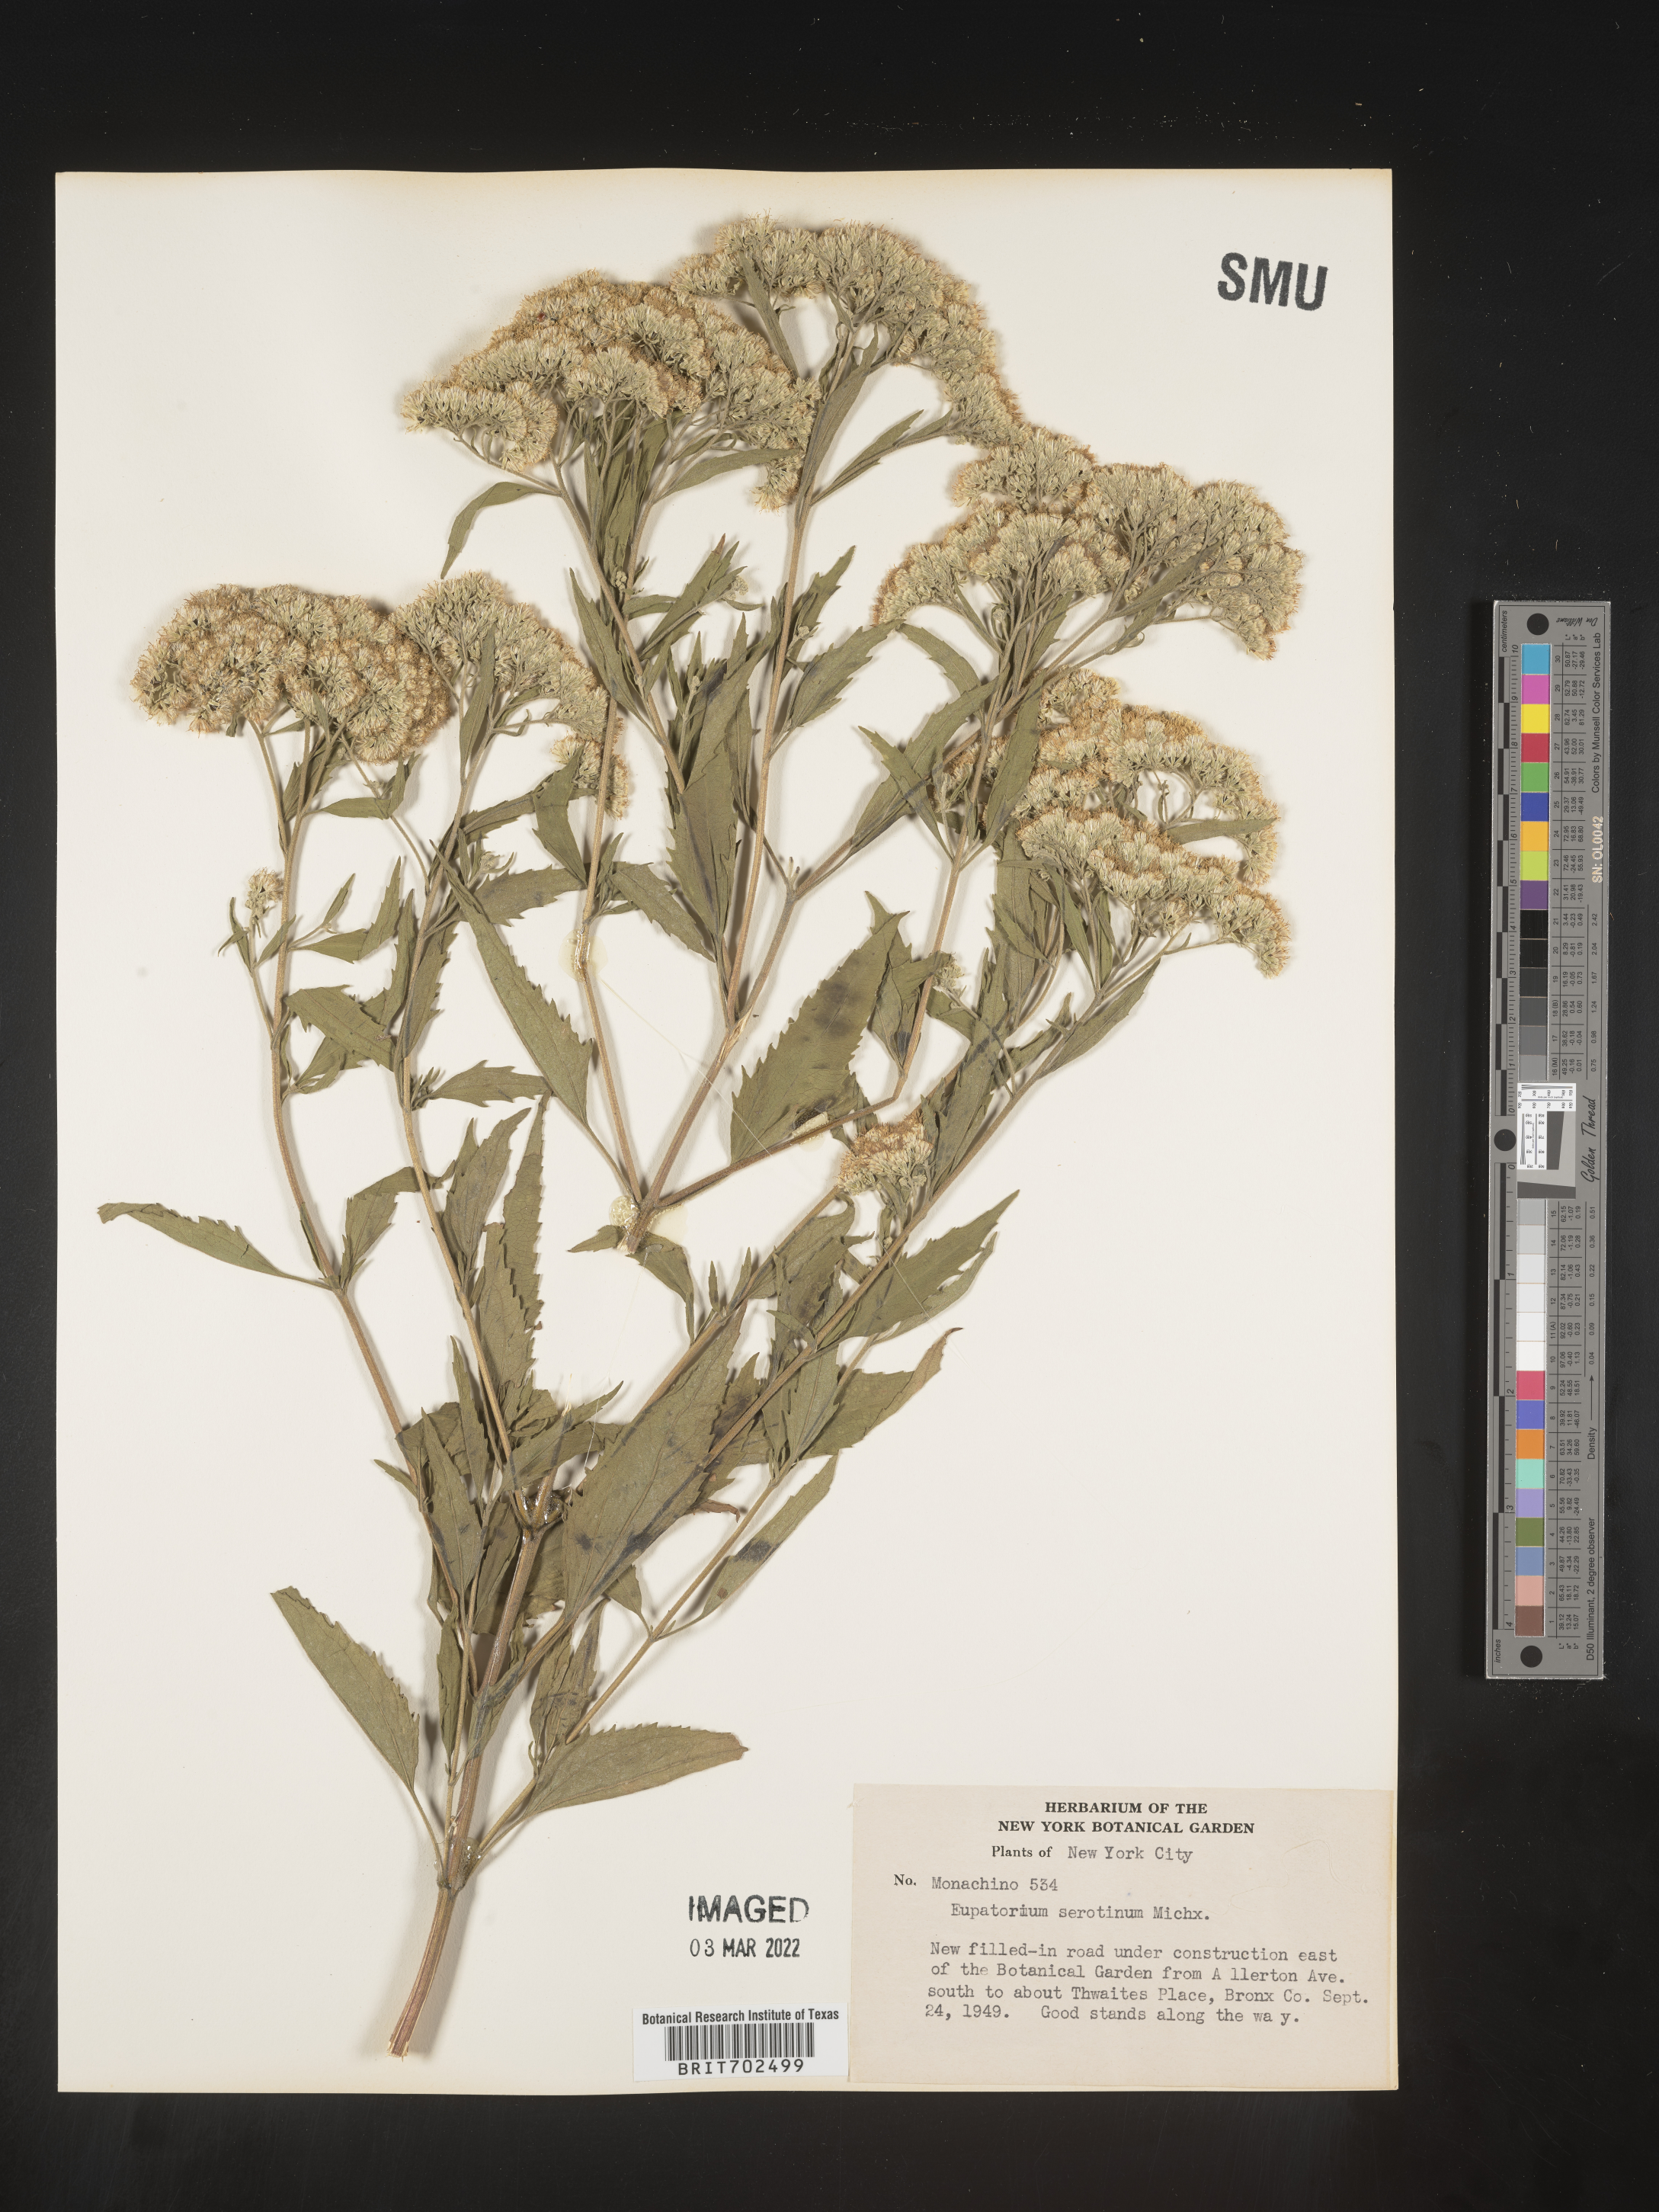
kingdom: Plantae
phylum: Tracheophyta
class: Magnoliopsida
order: Asterales
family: Asteraceae
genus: Eupatorium
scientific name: Eupatorium serotinum
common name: Late boneset
